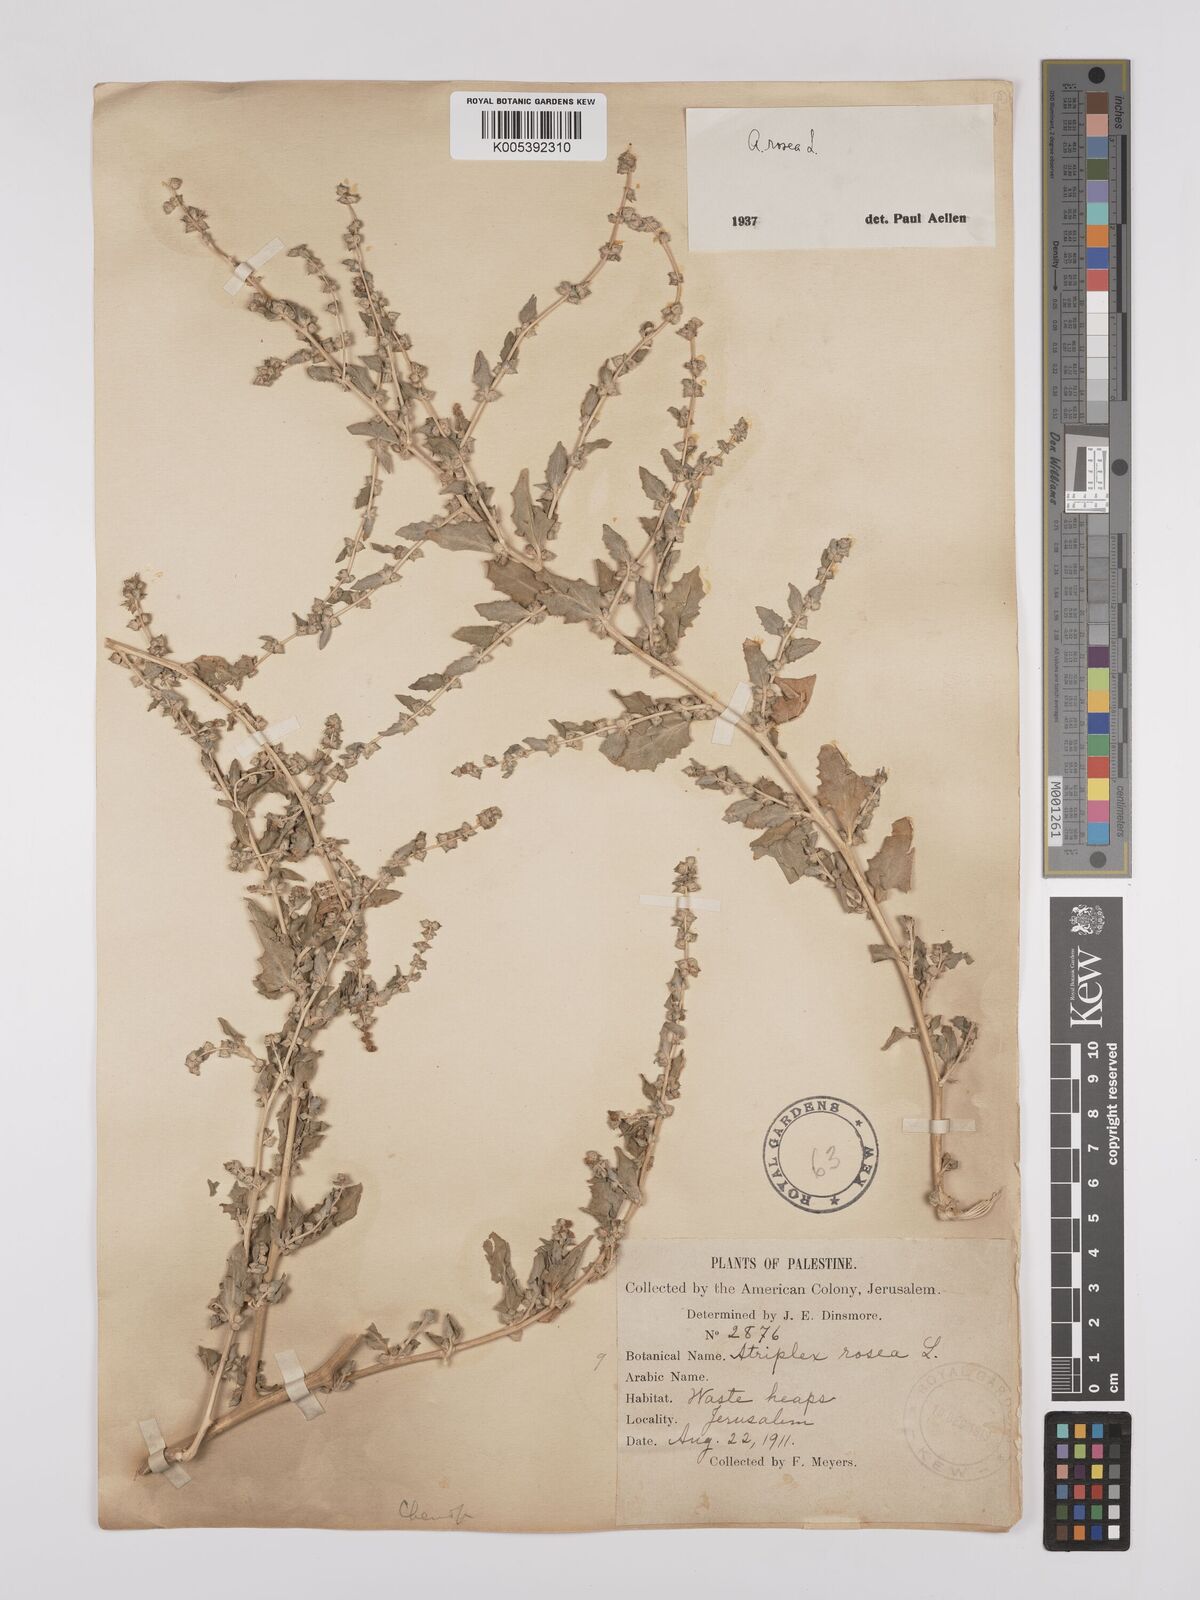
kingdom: Plantae
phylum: Tracheophyta
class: Magnoliopsida
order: Caryophyllales
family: Amaranthaceae
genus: Atriplex
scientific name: Atriplex
